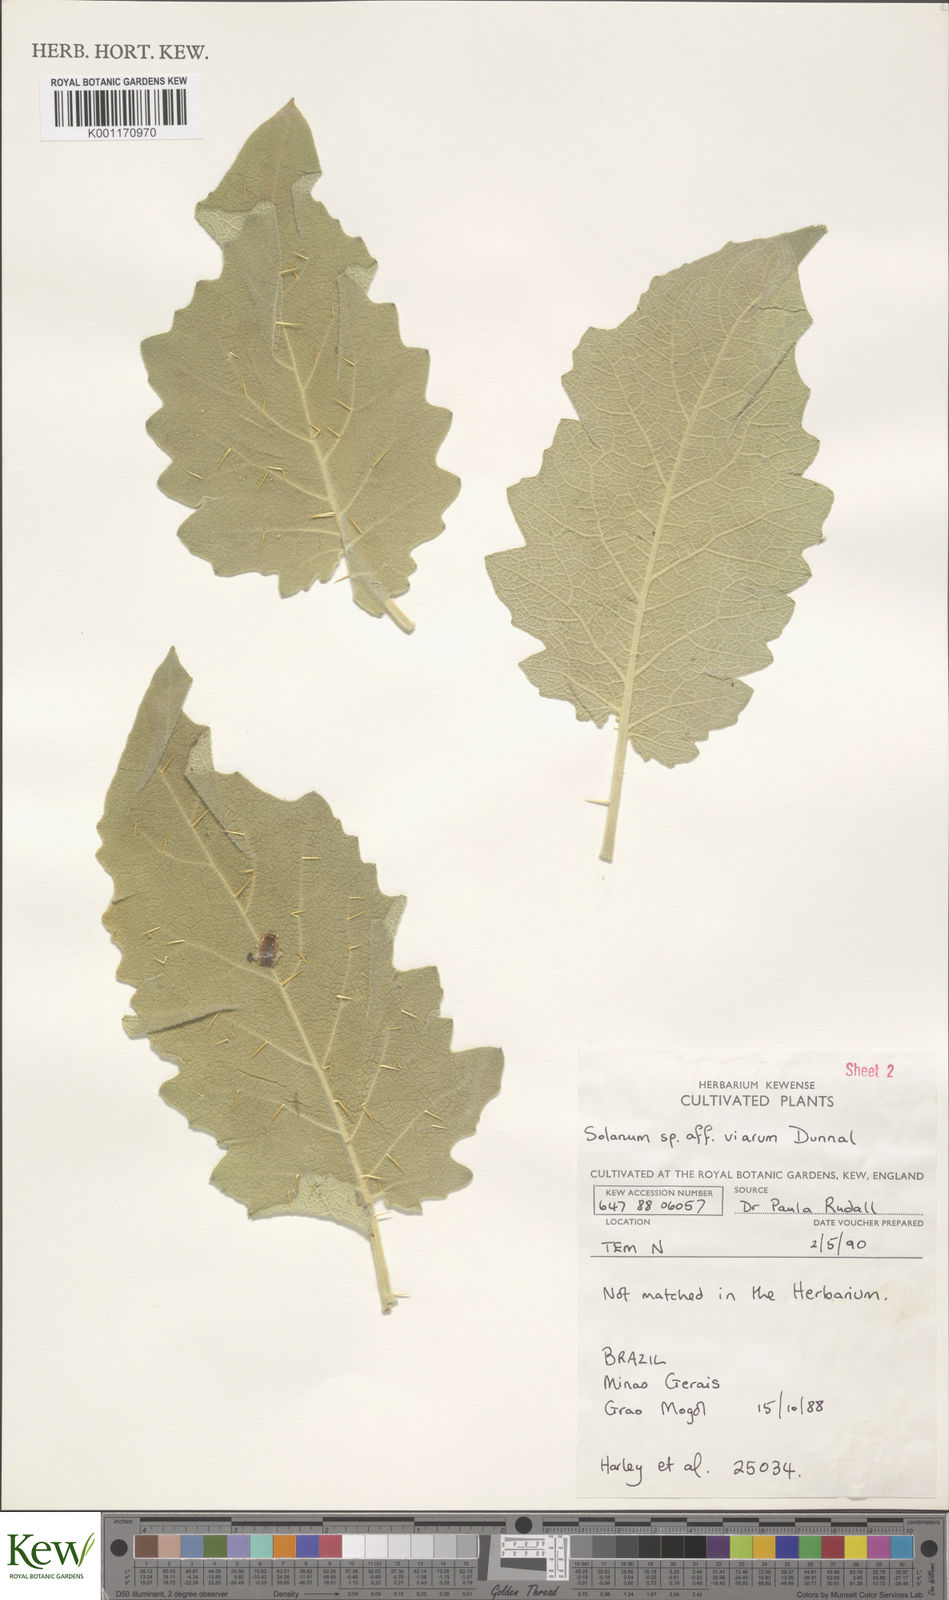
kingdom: Plantae
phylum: Tracheophyta
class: Magnoliopsida
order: Solanales
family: Solanaceae
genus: Solanum
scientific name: Solanum viarum
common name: Tropical soda apple
